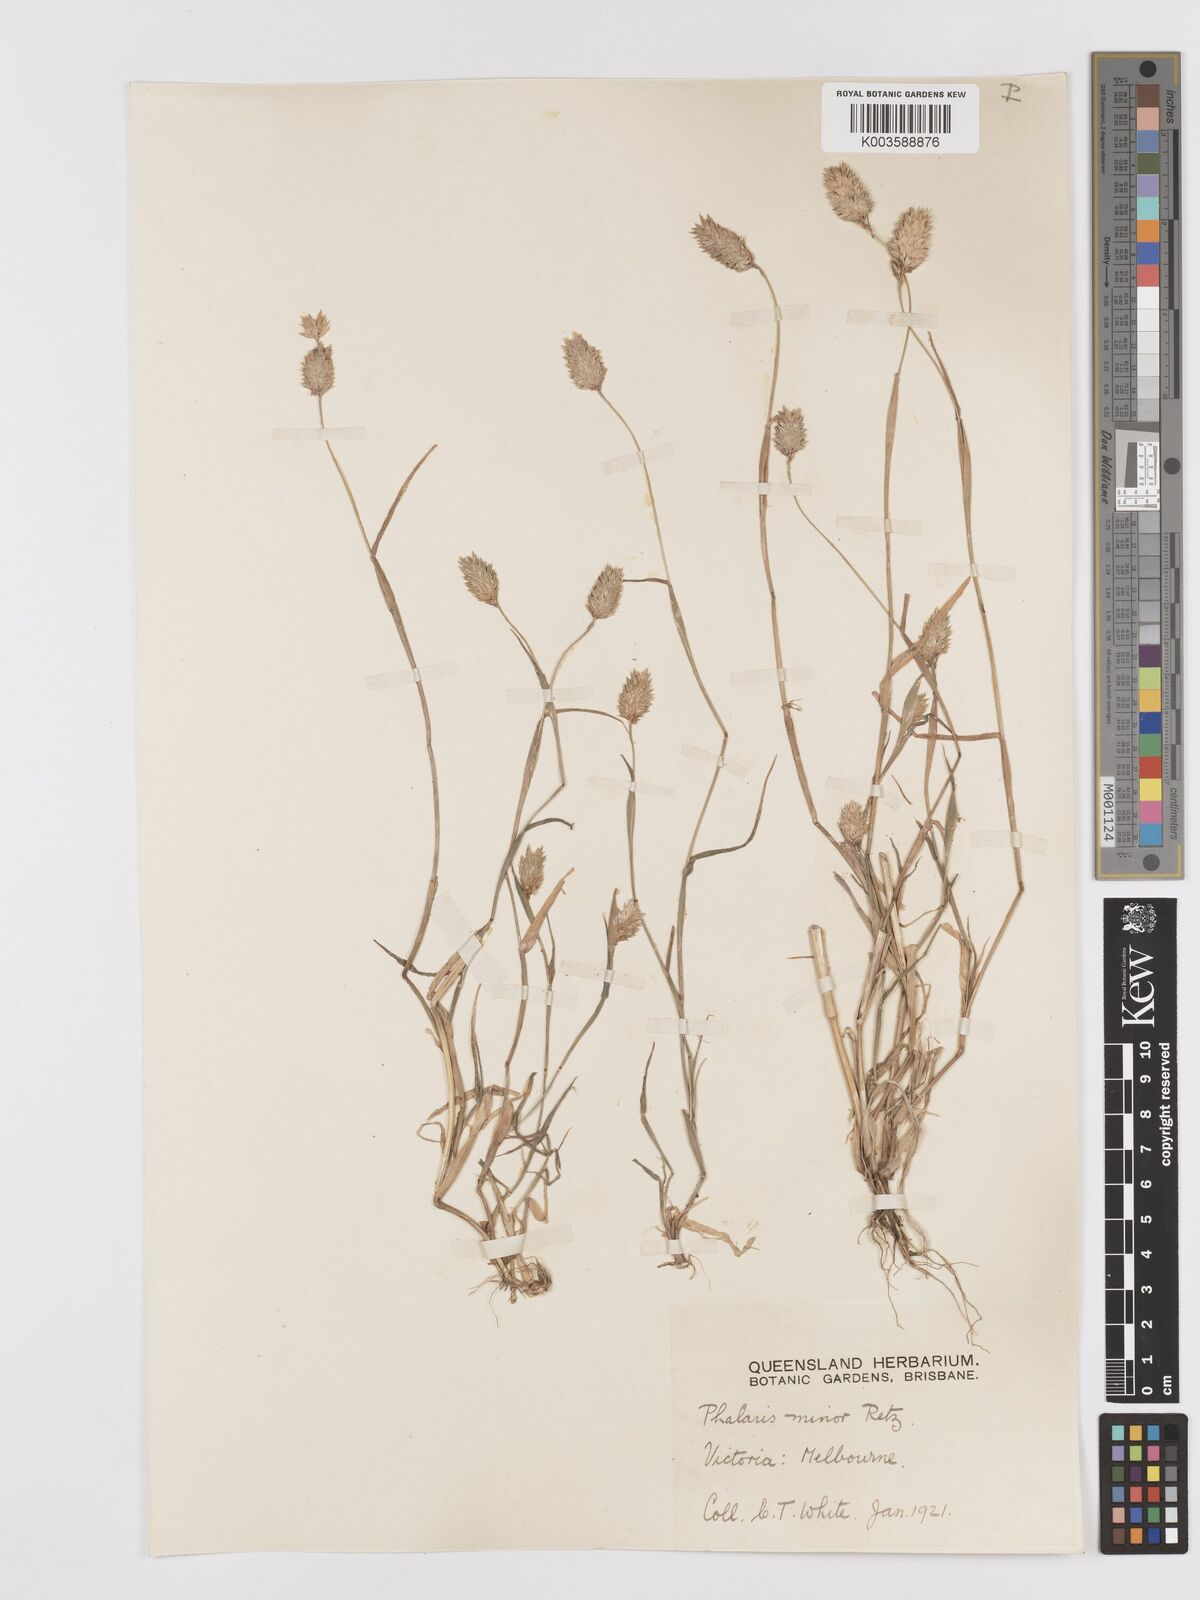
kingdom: Plantae
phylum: Tracheophyta
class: Liliopsida
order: Poales
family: Poaceae
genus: Phalaris
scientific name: Phalaris minor
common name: Littleseed canarygrass
